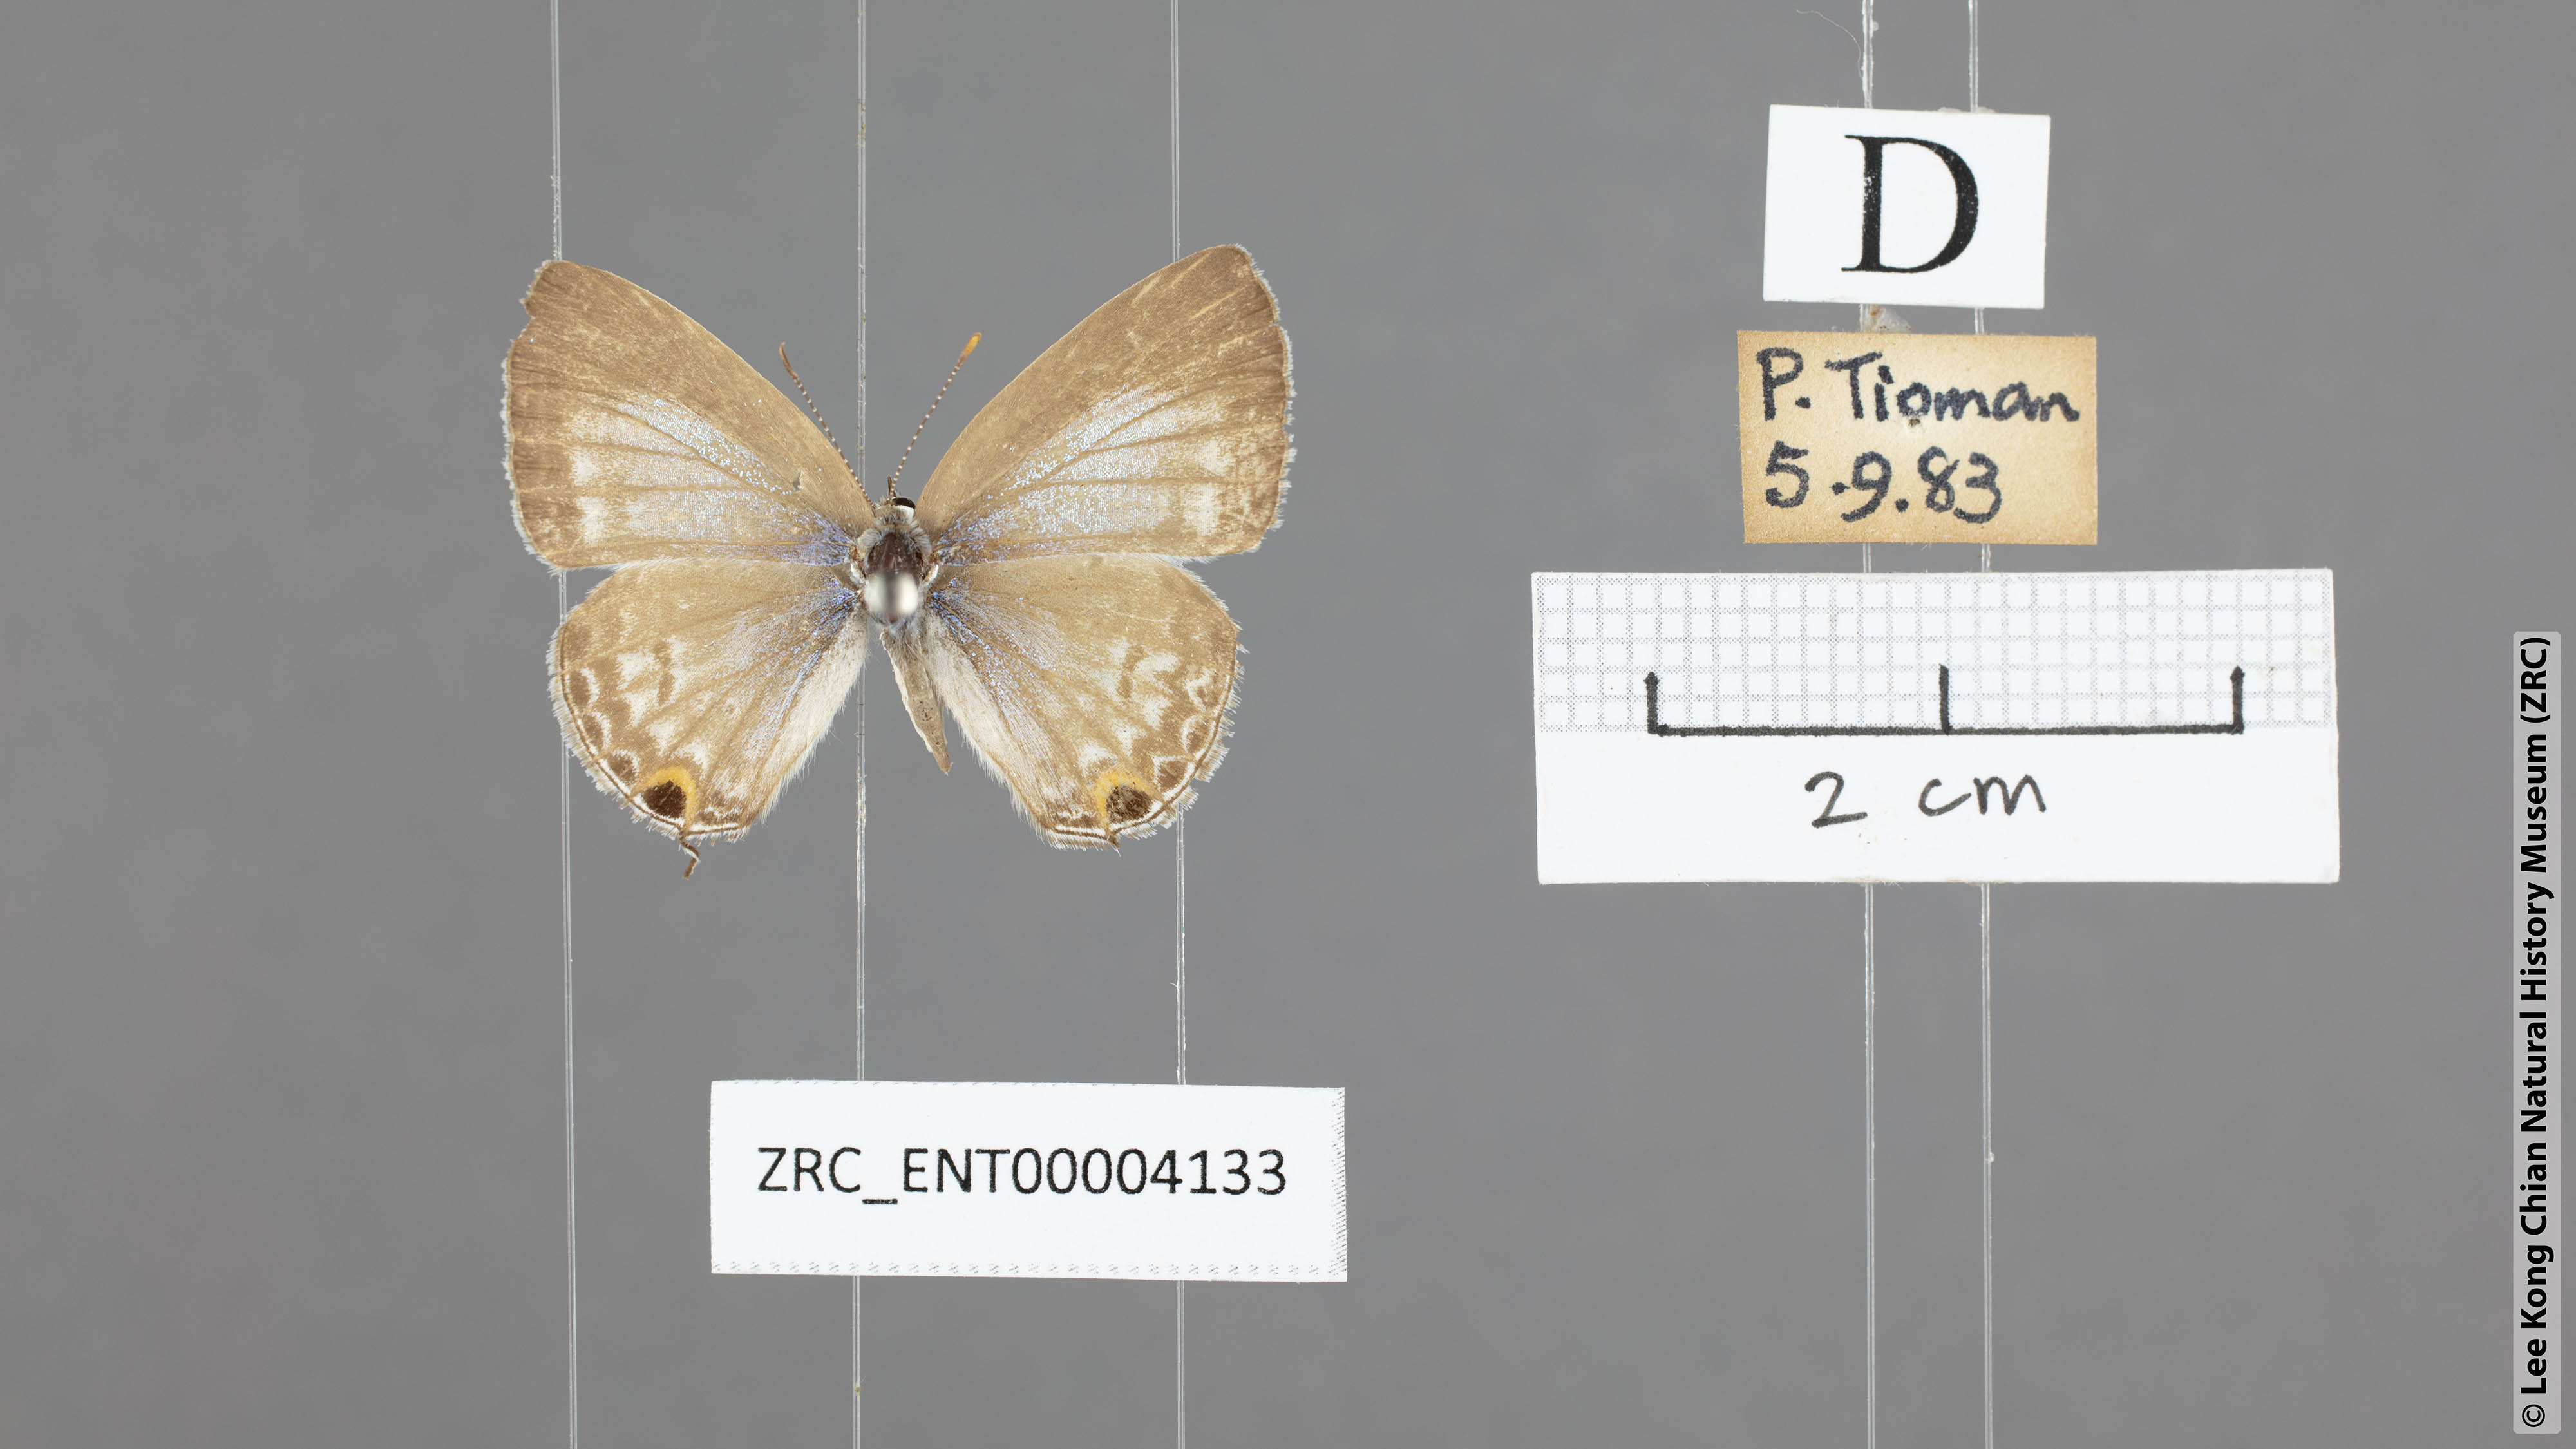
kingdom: Animalia
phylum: Arthropoda
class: Insecta
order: Lepidoptera
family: Lycaenidae
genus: Catochrysops
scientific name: Catochrysops strabo
